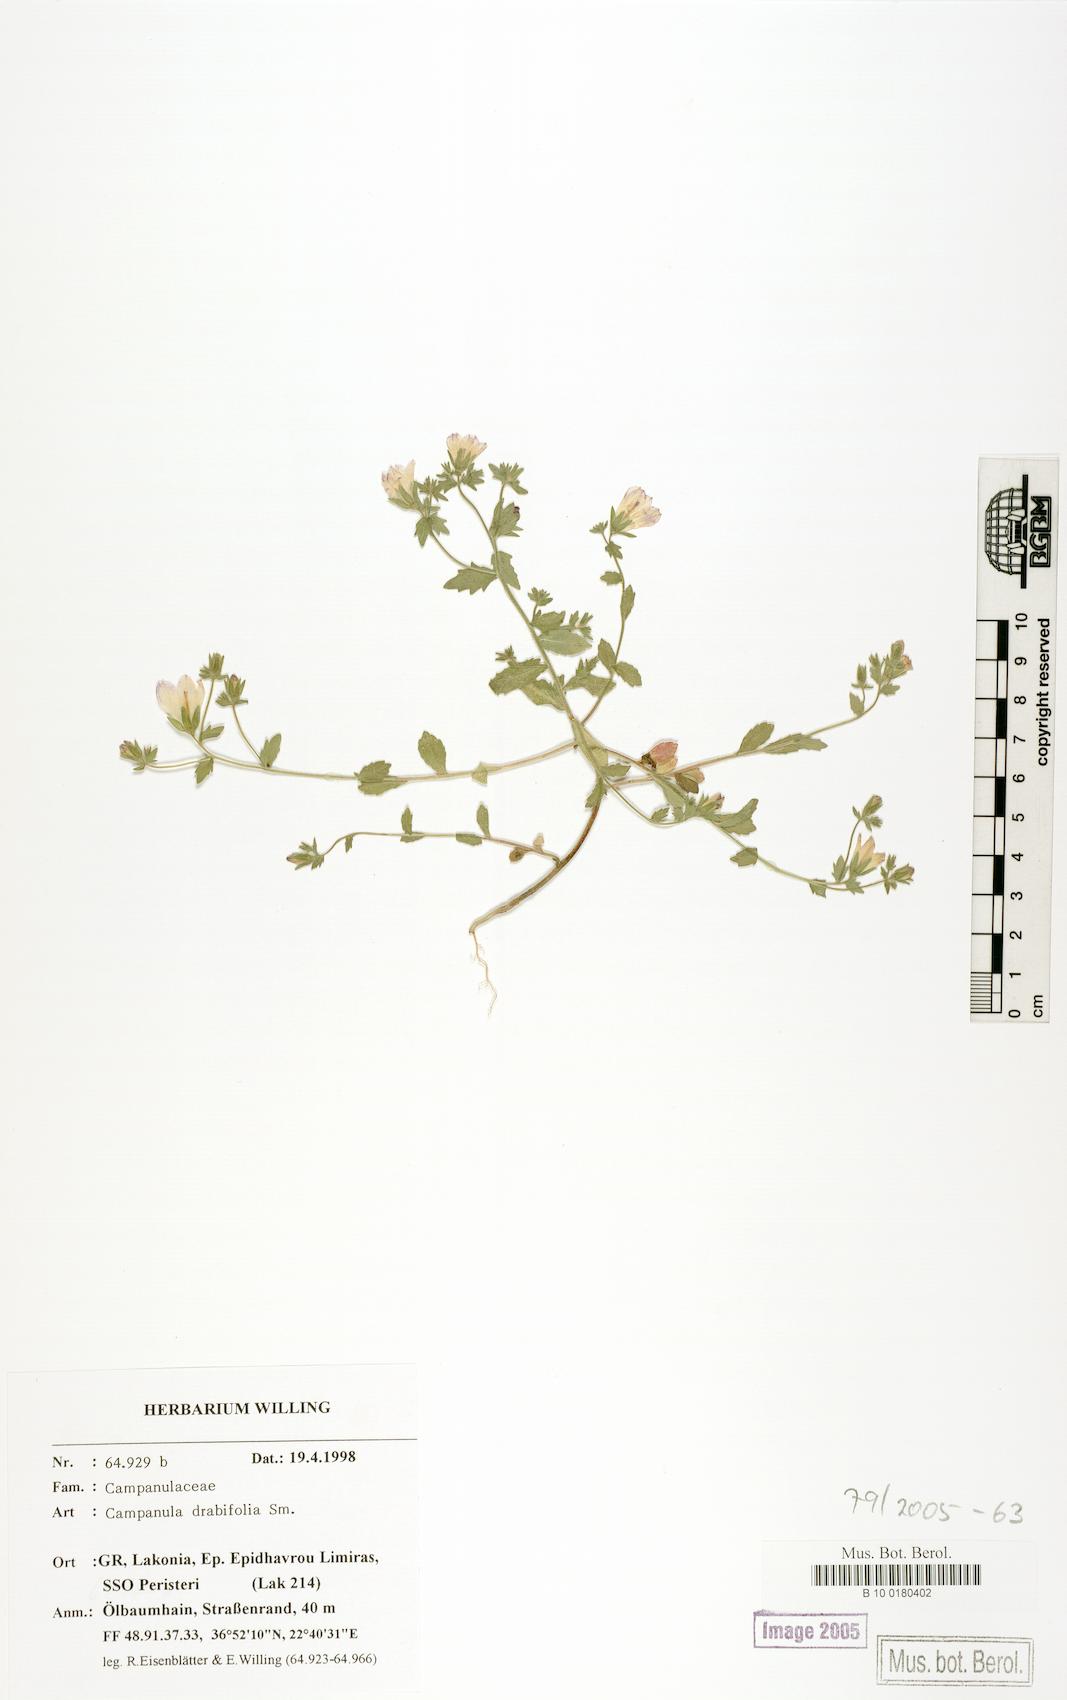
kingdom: Plantae
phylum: Tracheophyta
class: Magnoliopsida
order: Asterales
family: Campanulaceae
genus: Campanula
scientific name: Campanula drabifolia
